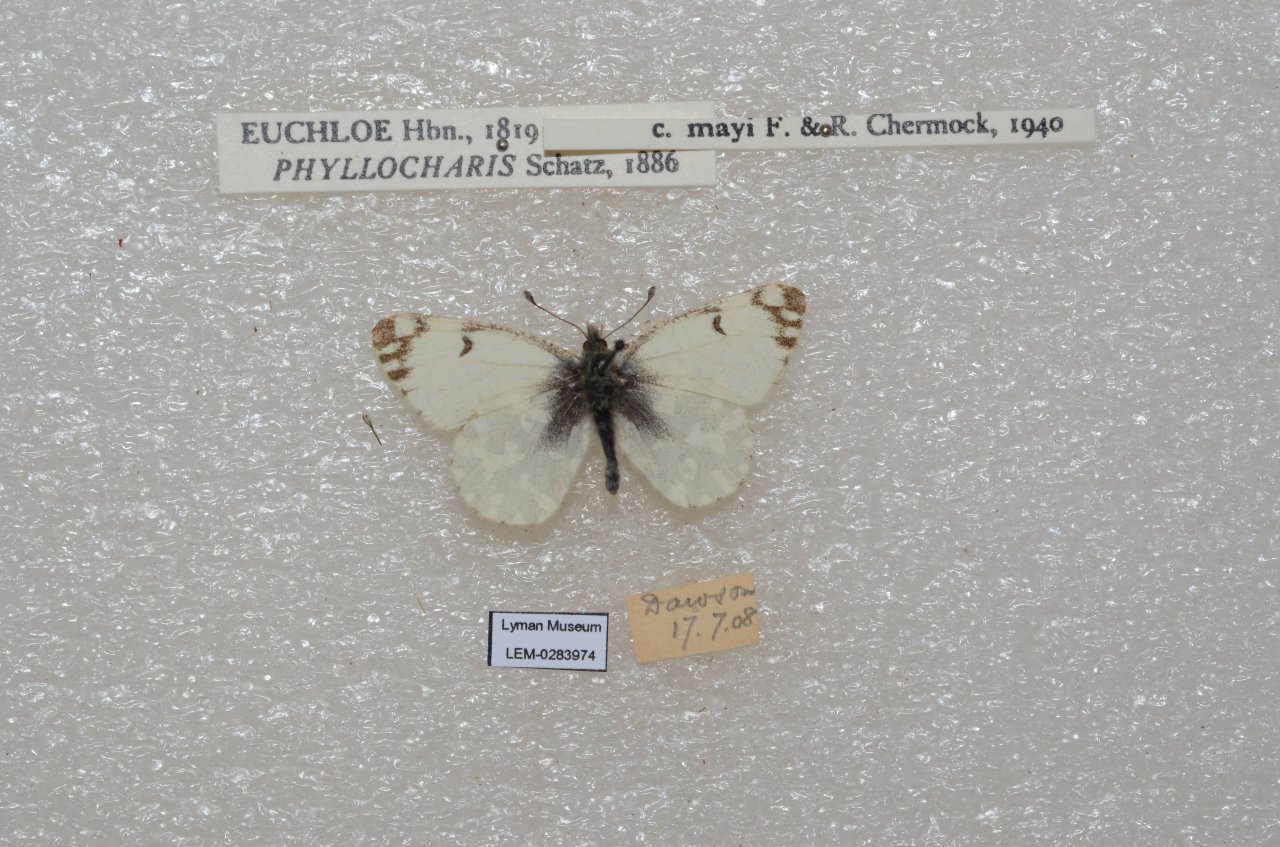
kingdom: Animalia
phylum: Arthropoda
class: Insecta
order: Lepidoptera
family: Pieridae
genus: Euchloe
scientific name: Euchloe ausonides
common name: Large Marble
